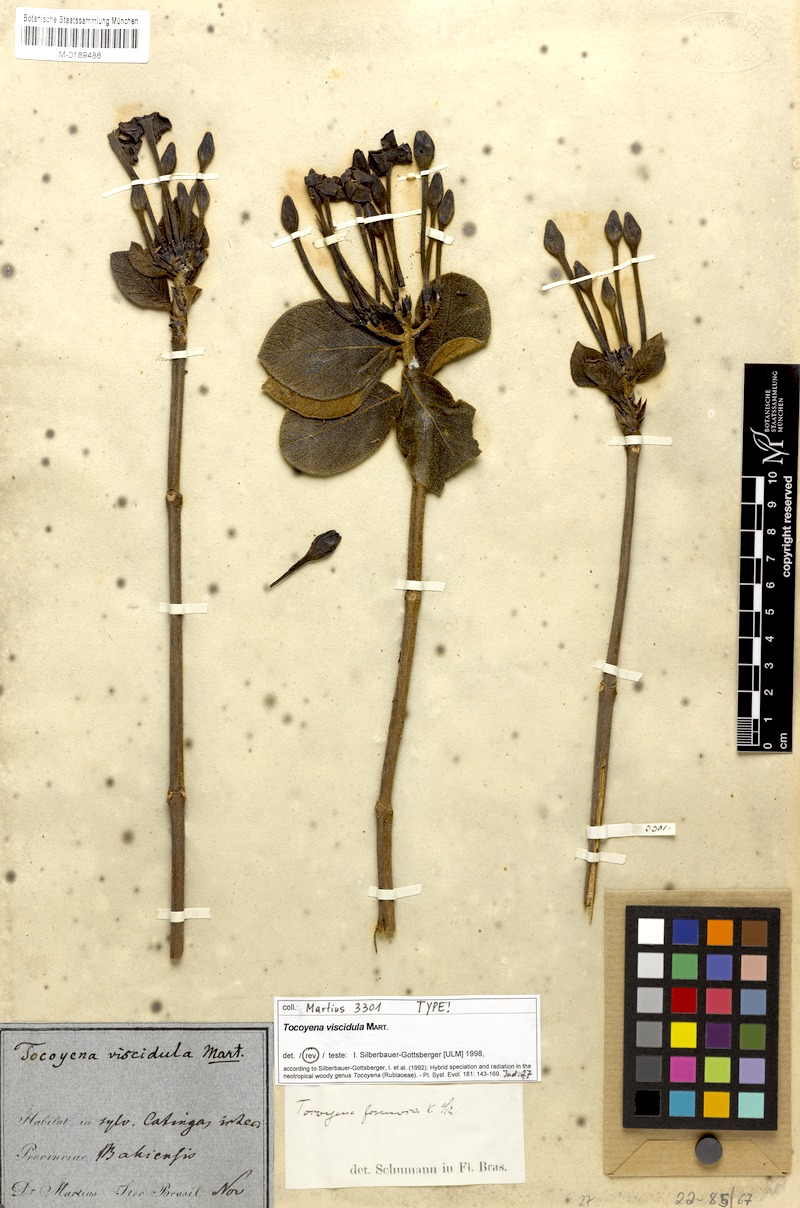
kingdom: Plantae
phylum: Tracheophyta
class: Magnoliopsida
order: Gentianales
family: Rubiaceae
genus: Tocoyena
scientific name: Tocoyena viscidula
